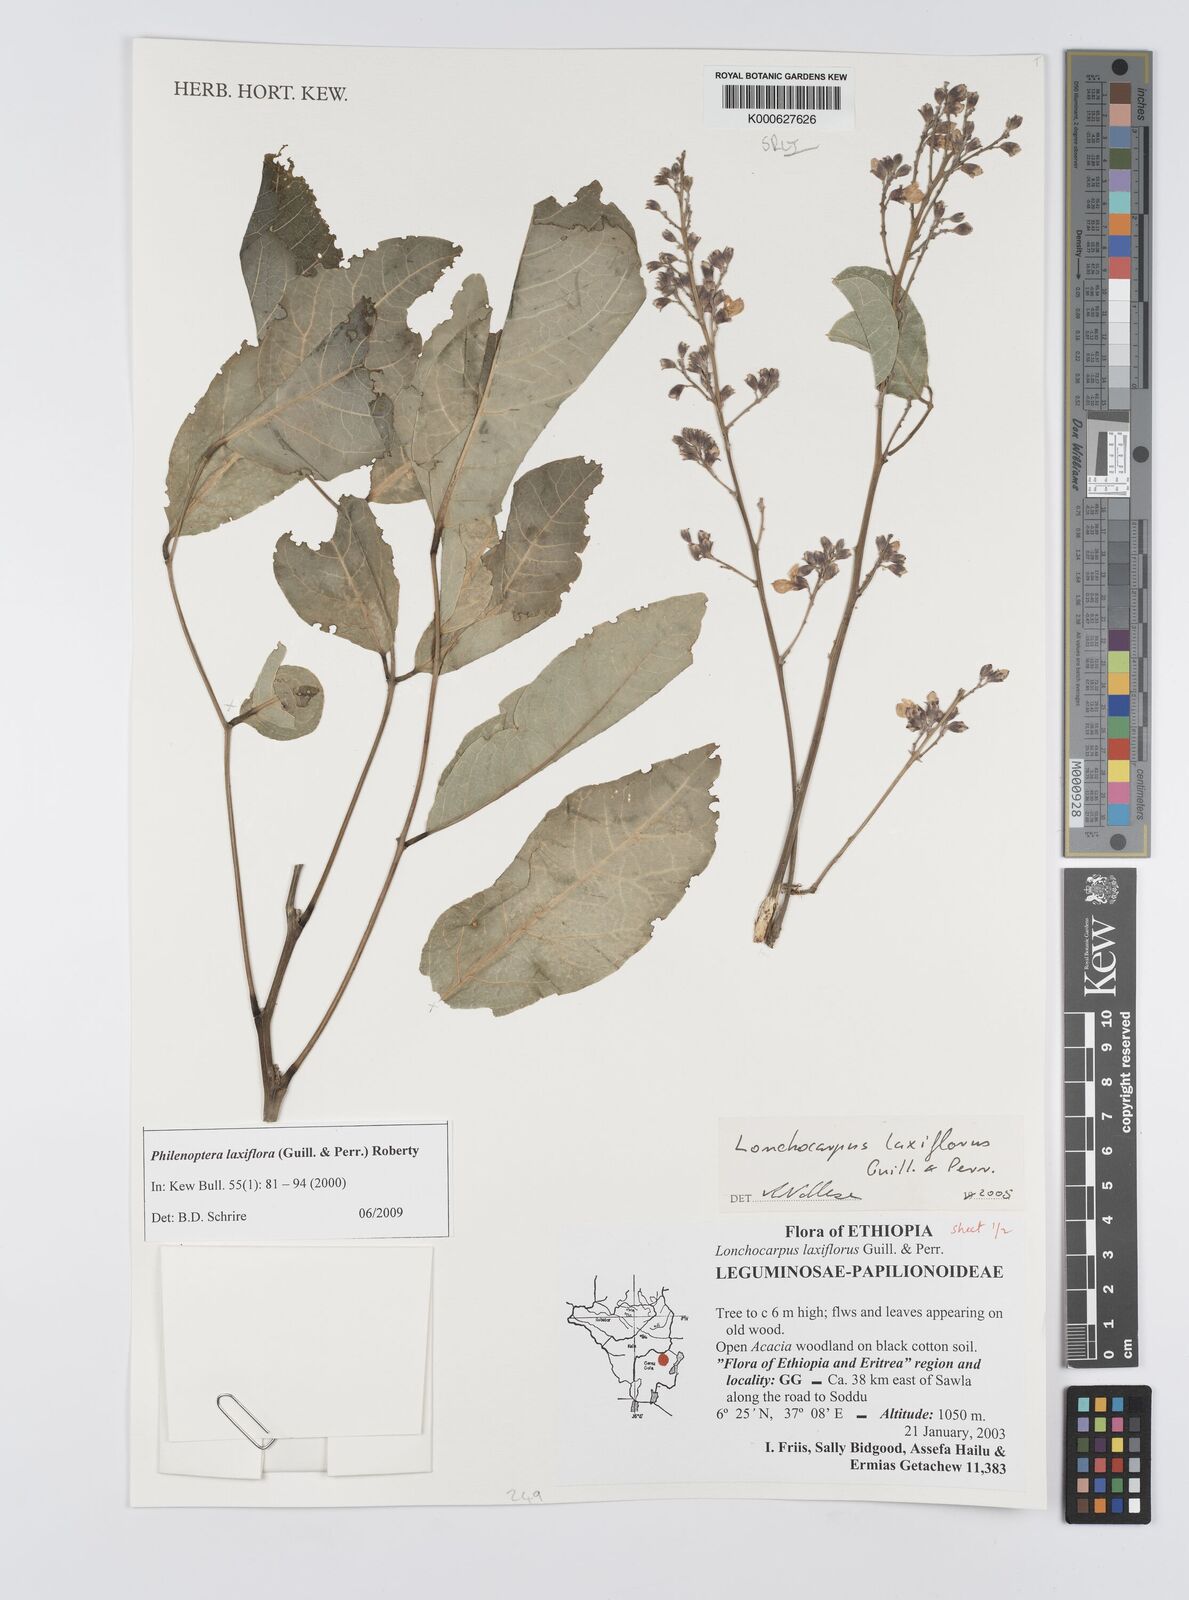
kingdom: Plantae
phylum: Tracheophyta
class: Magnoliopsida
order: Fabales
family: Fabaceae
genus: Philenoptera
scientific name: Philenoptera laxiflora
